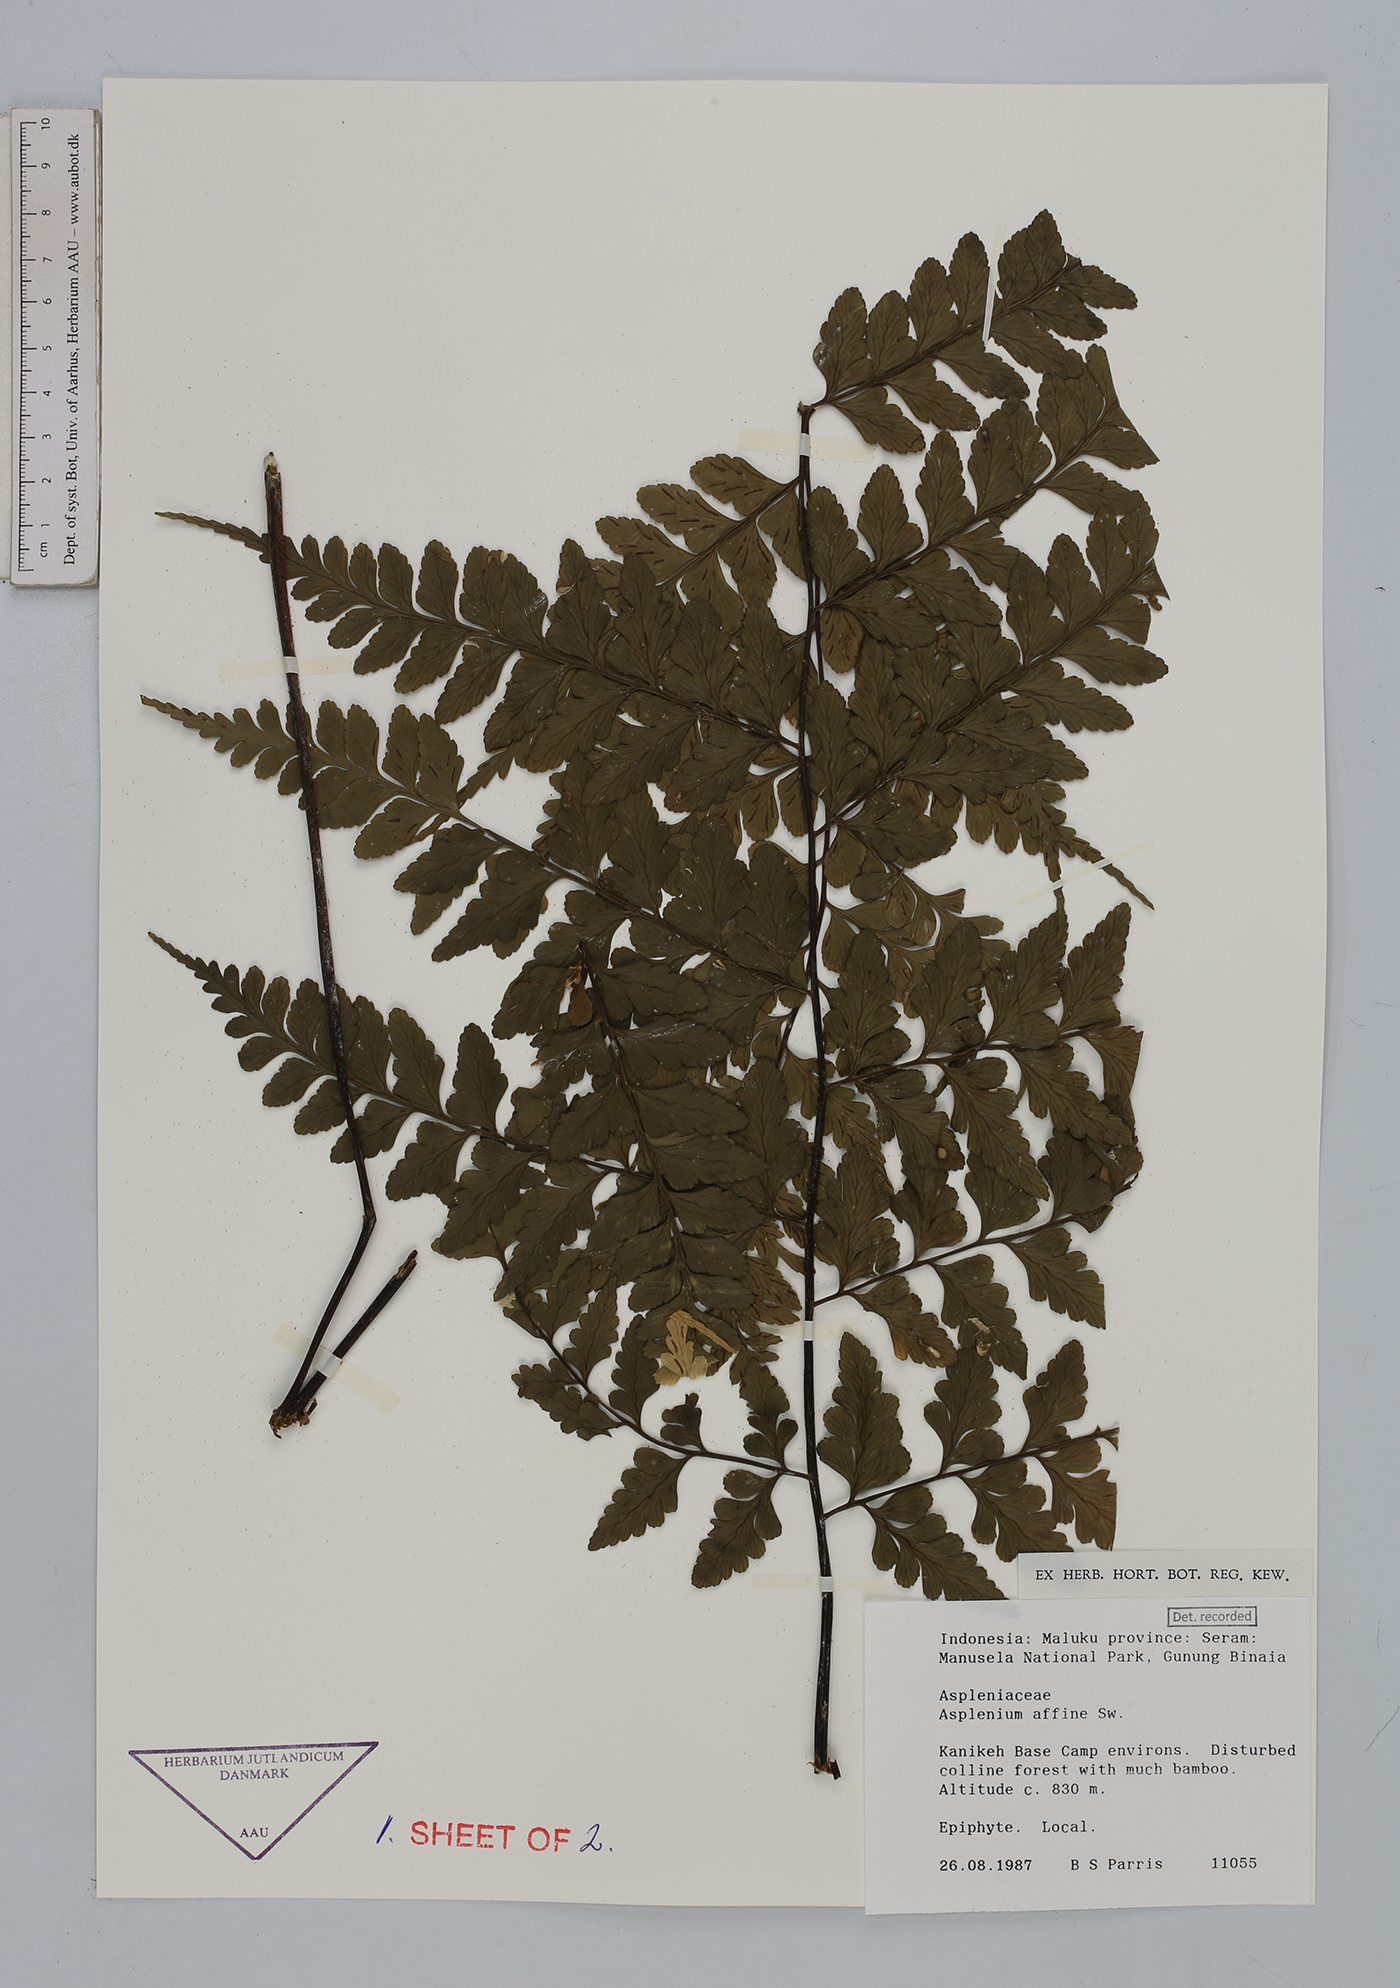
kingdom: Plantae
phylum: Tracheophyta
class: Polypodiopsida
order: Polypodiales
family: Aspleniaceae
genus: Asplenium
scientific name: Asplenium affine
